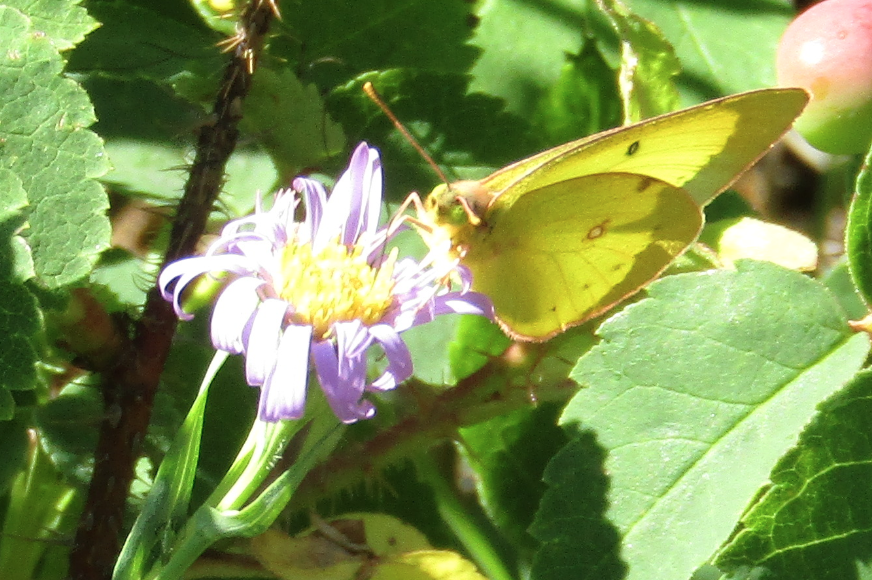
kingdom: Animalia
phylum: Arthropoda
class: Insecta
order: Lepidoptera
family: Pieridae
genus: Colias
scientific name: Colias philodice
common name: Clouded Sulphur
